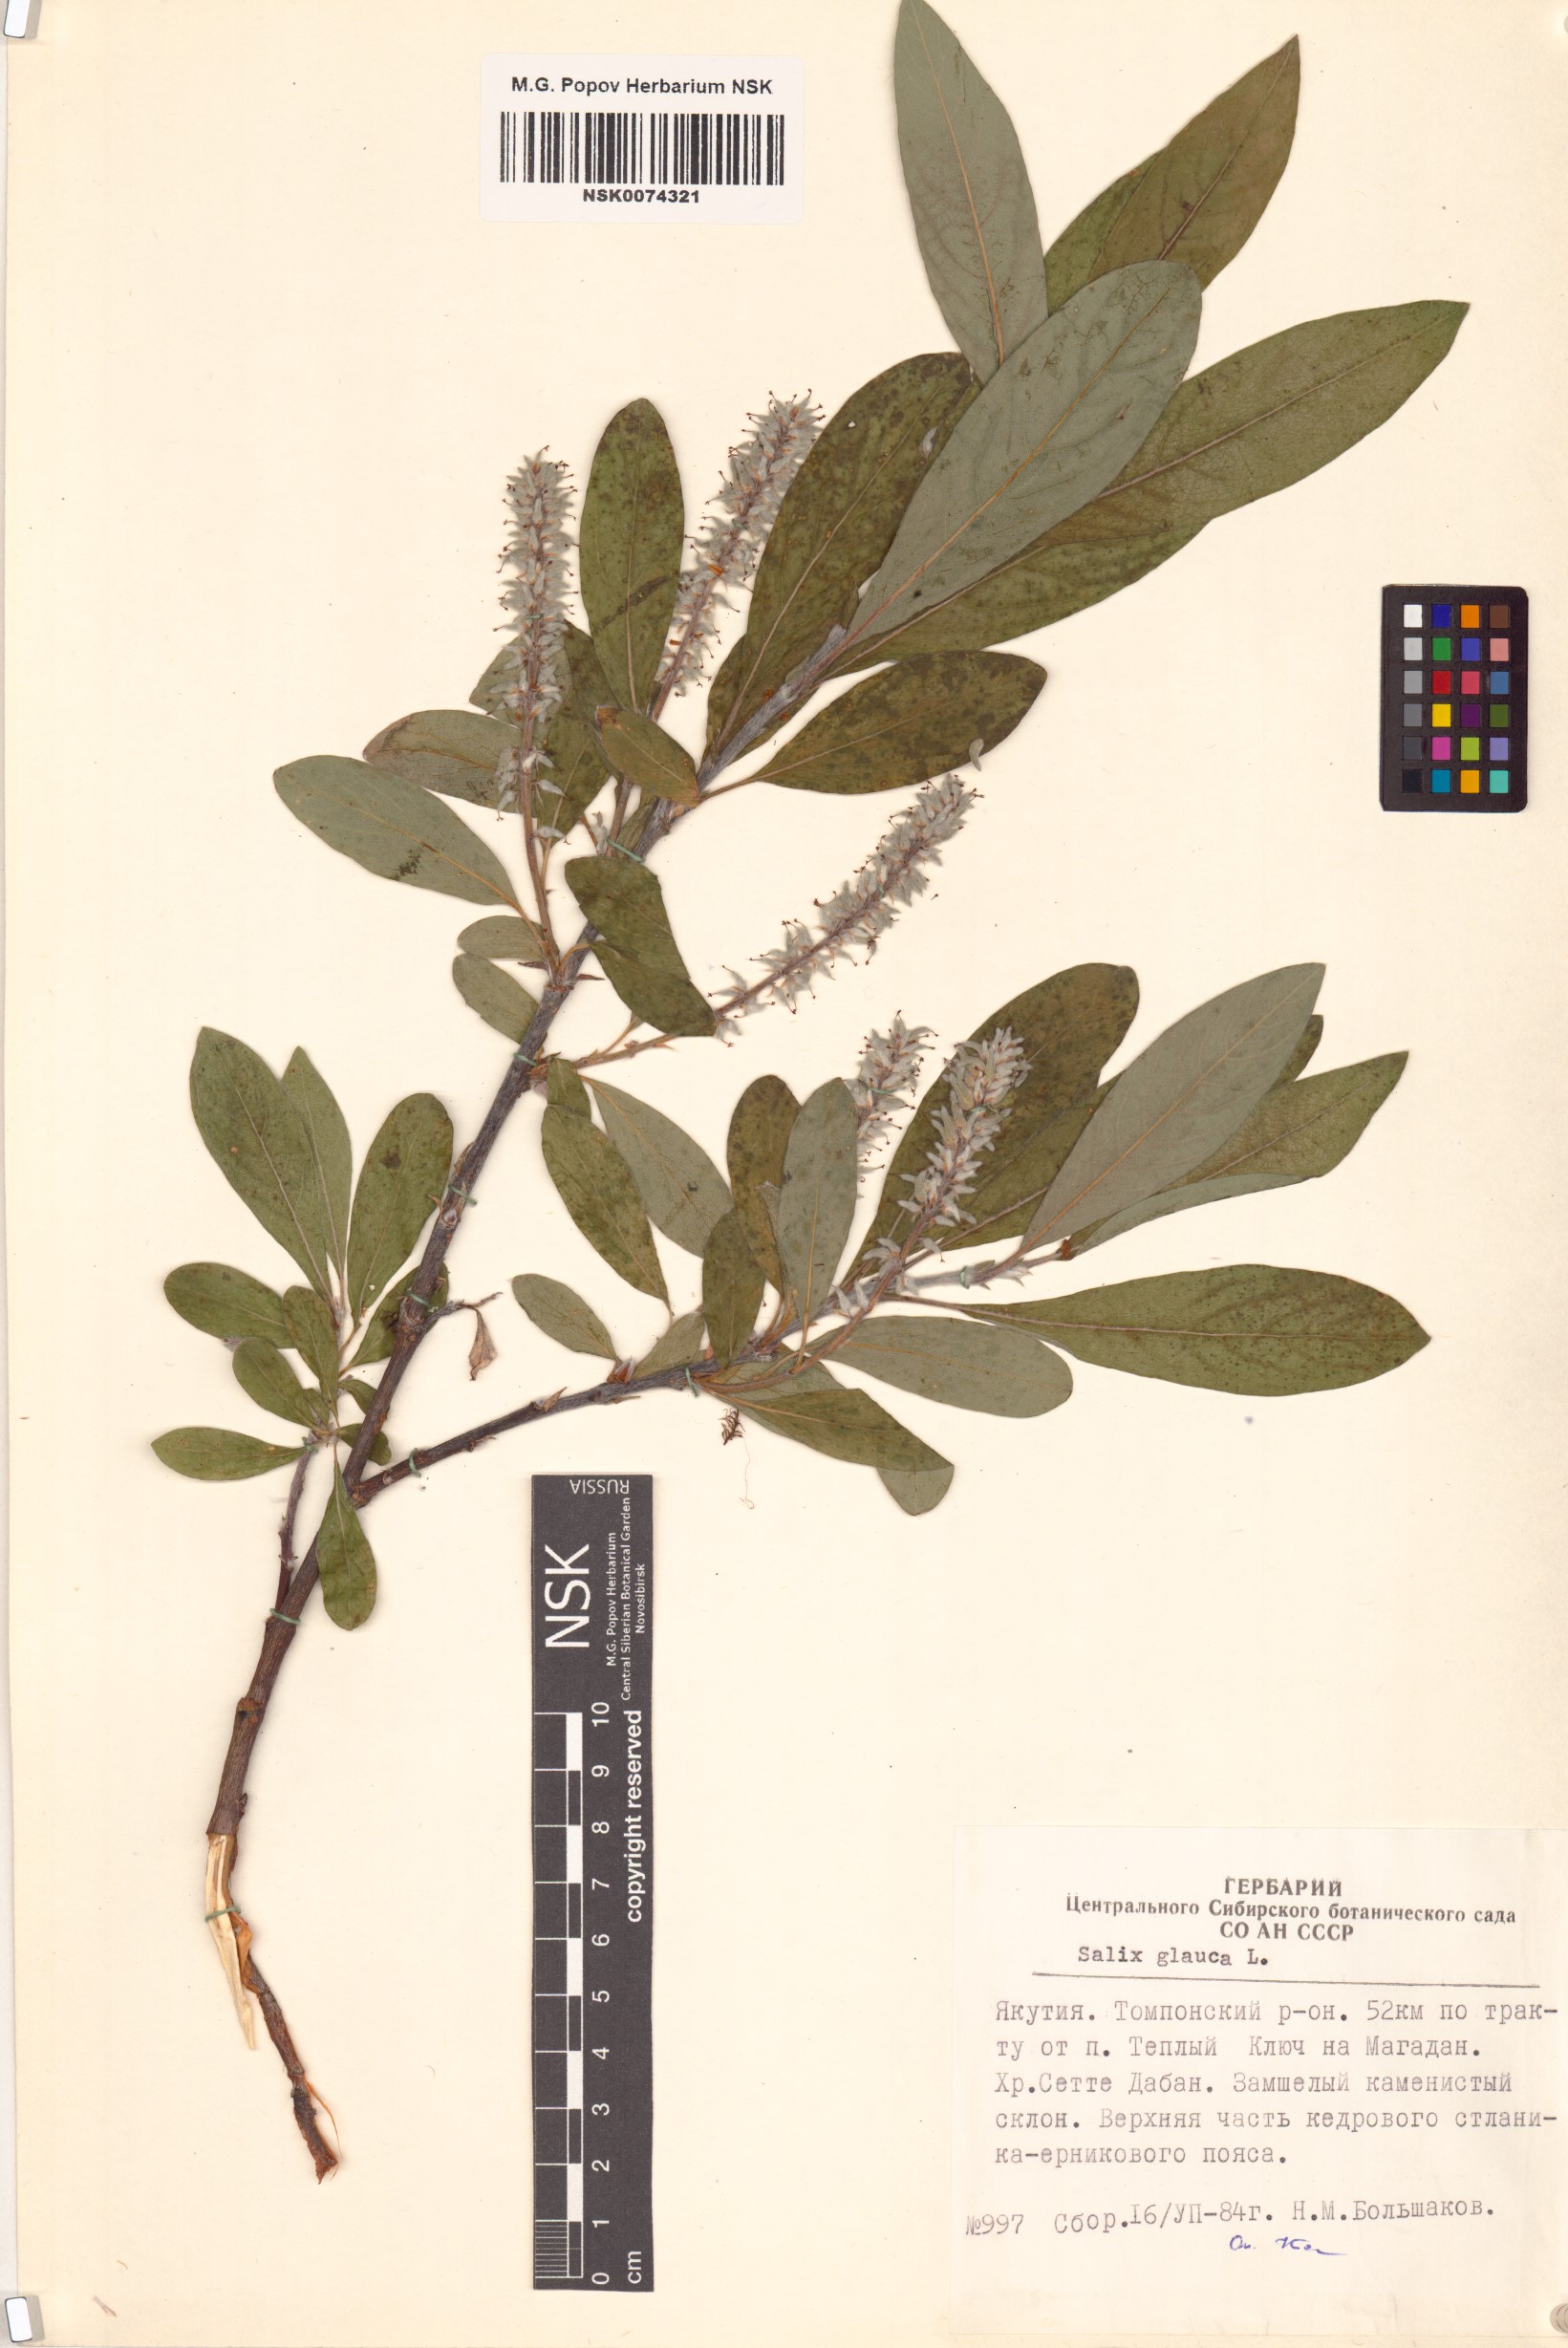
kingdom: Plantae
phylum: Tracheophyta
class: Magnoliopsida
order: Malpighiales
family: Salicaceae
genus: Salix
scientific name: Salix glauca
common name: Glaucous willow
